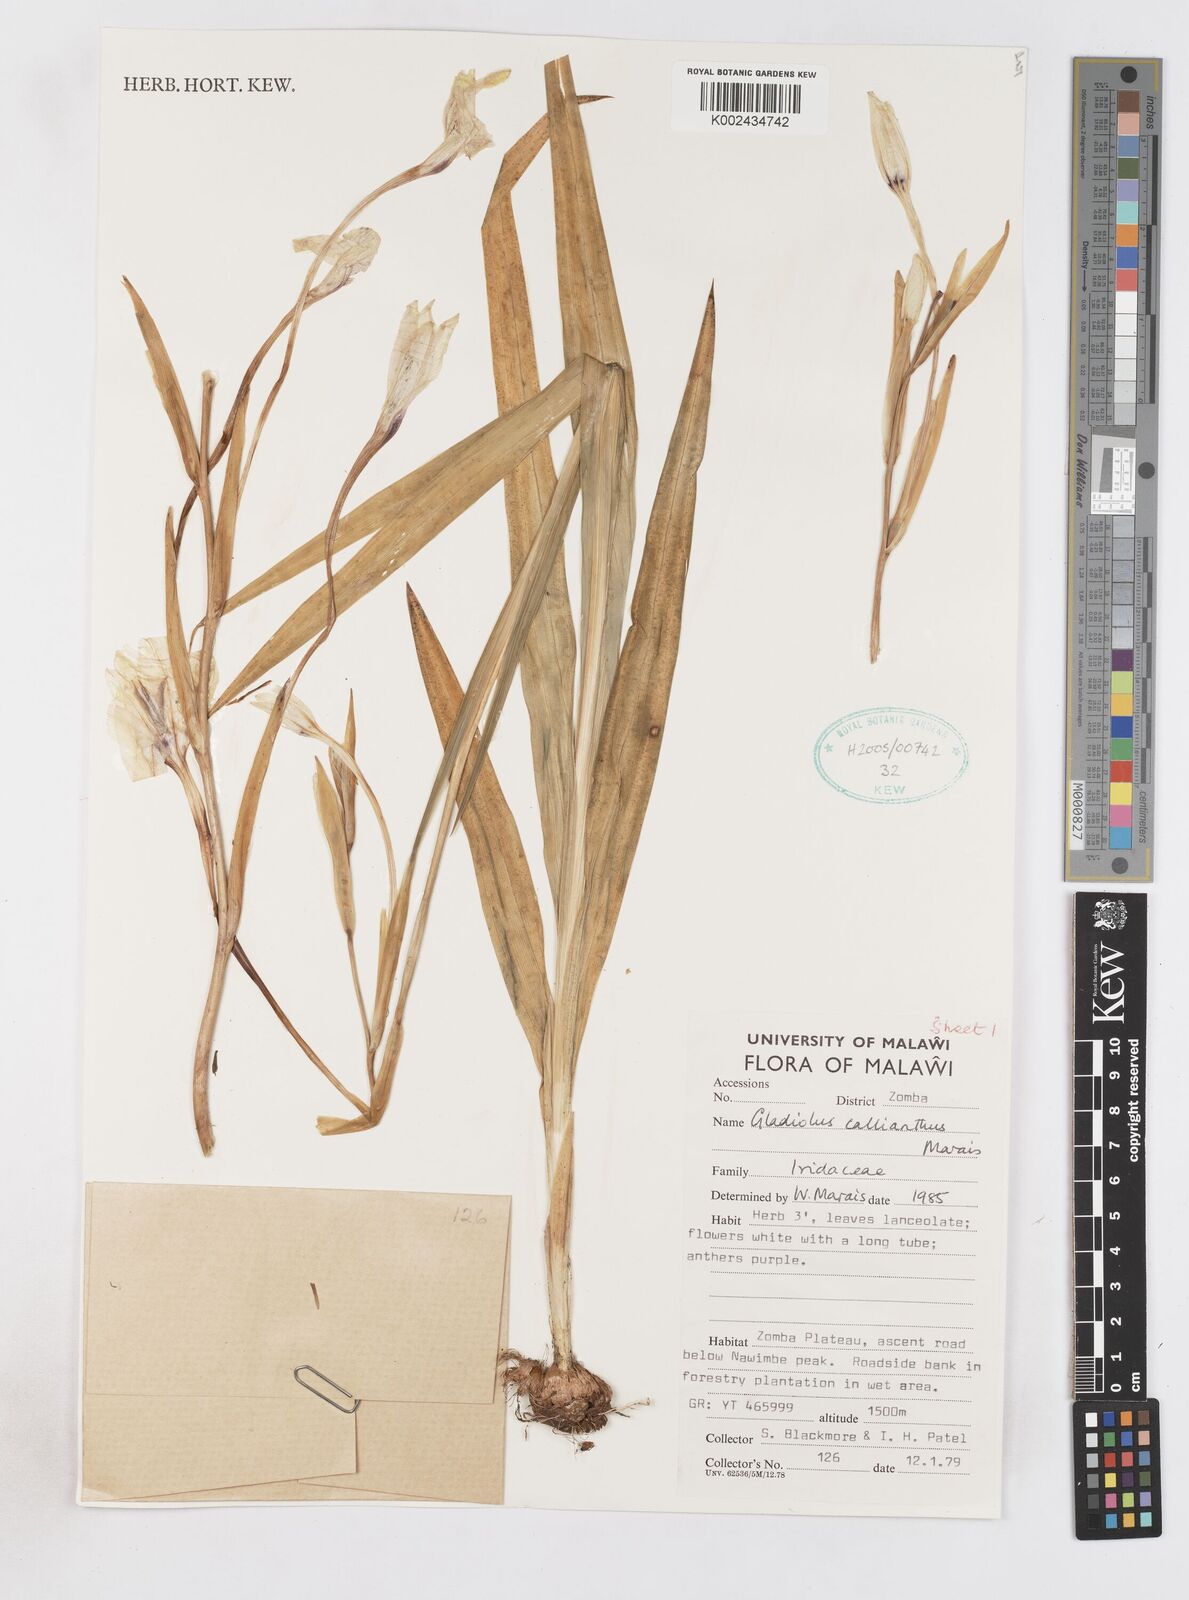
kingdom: Plantae
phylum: Tracheophyta
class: Liliopsida
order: Asparagales
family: Iridaceae
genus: Gladiolus
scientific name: Gladiolus murielae
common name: Acidanthera
